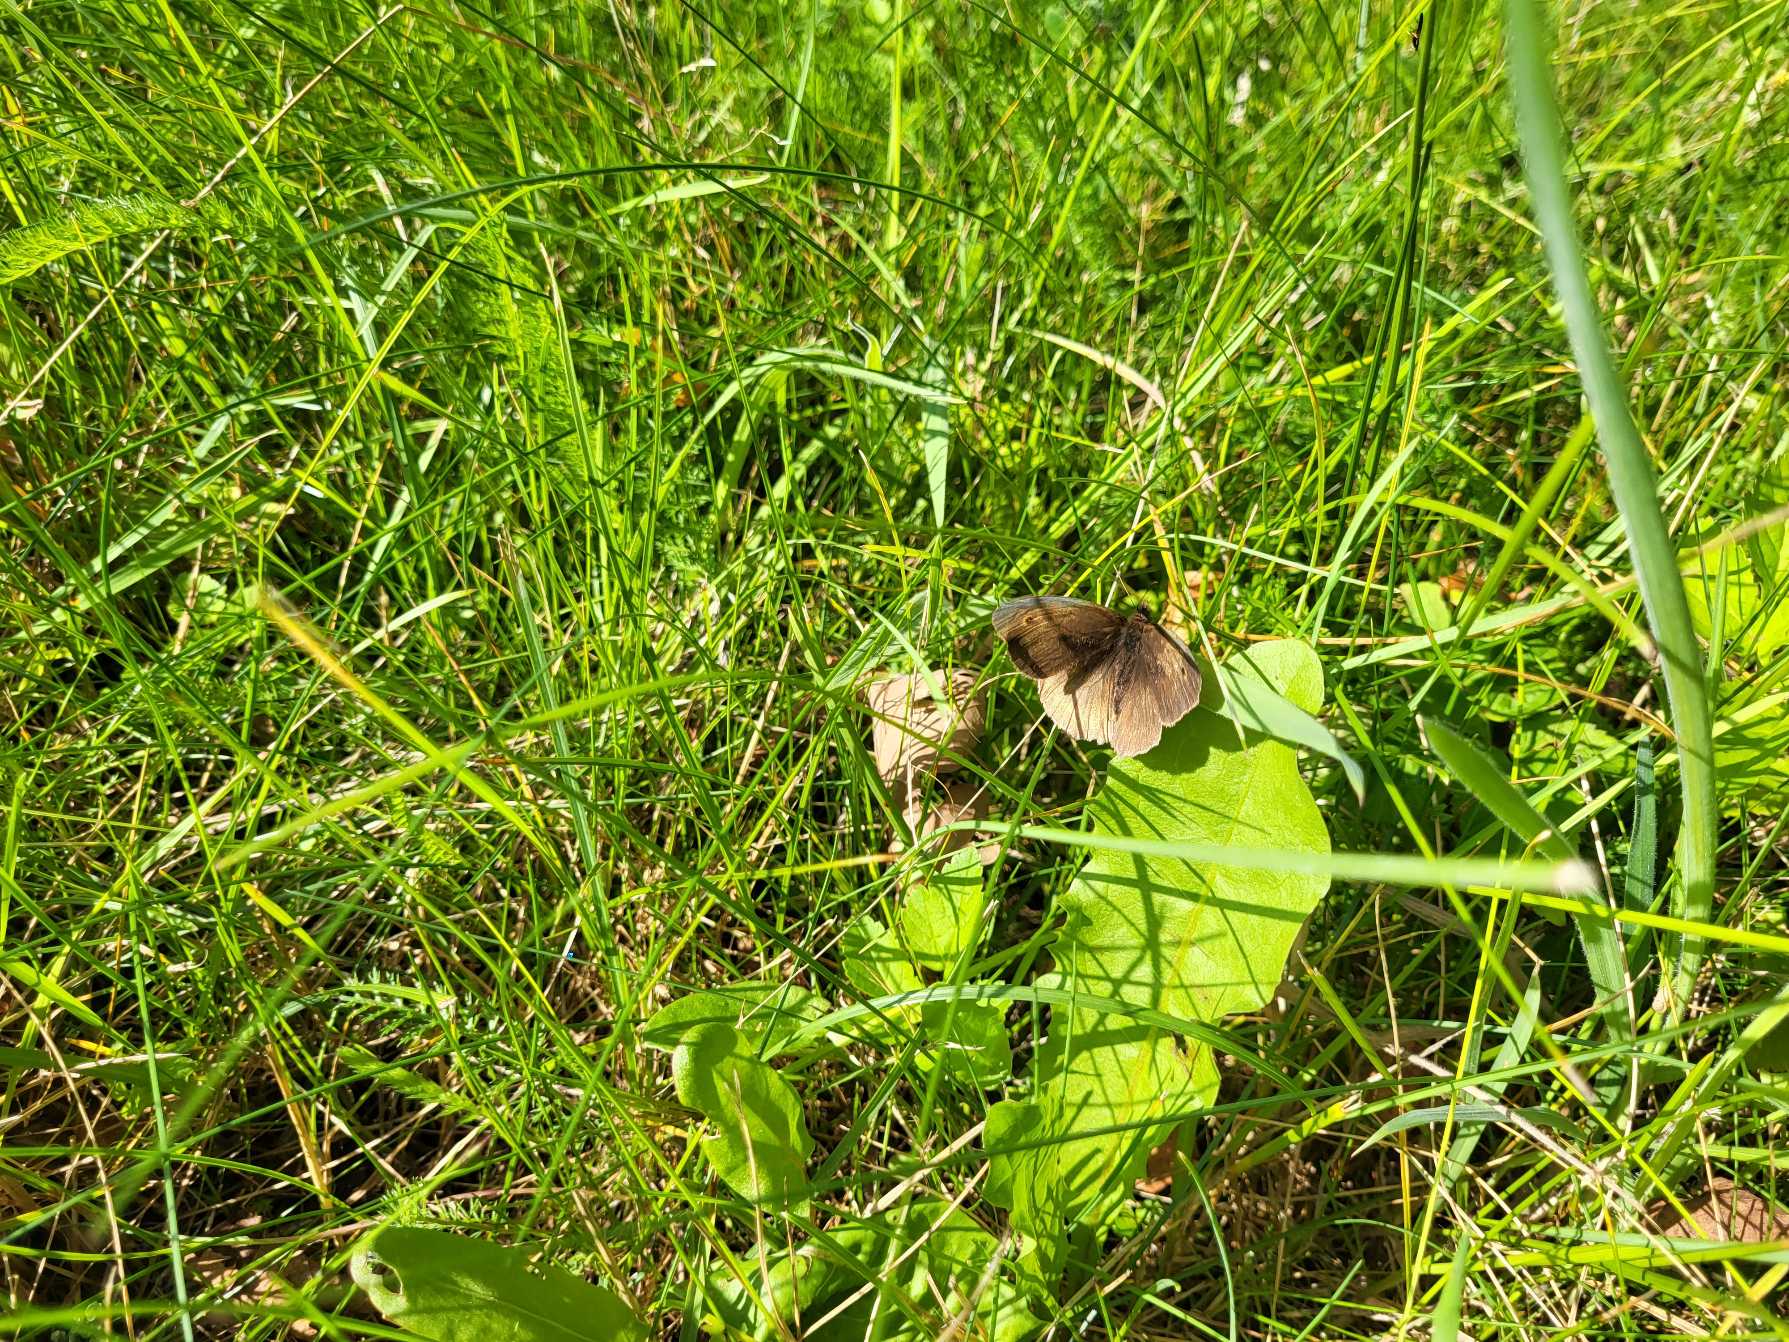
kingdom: Animalia
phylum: Arthropoda
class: Insecta
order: Lepidoptera
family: Nymphalidae
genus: Maniola
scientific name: Maniola jurtina
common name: Græsrandøje
